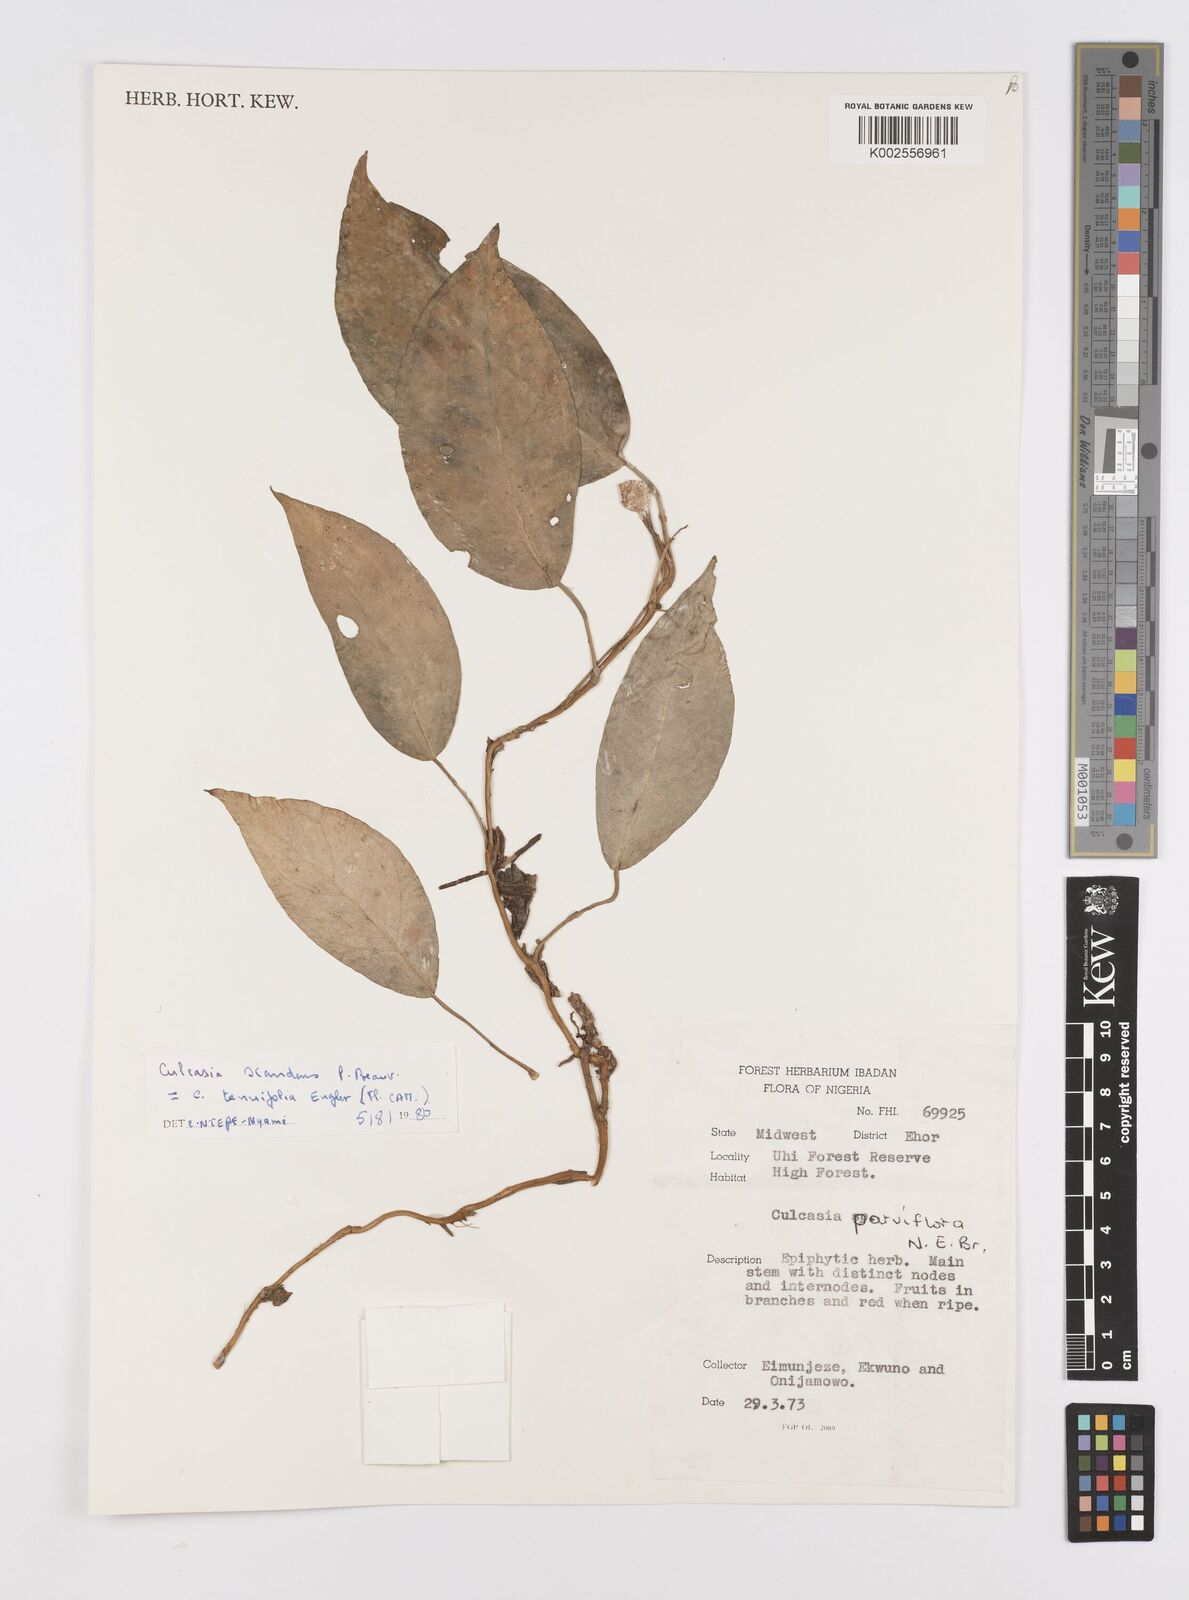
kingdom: Plantae
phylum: Tracheophyta
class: Liliopsida
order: Alismatales
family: Araceae
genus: Culcasia
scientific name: Culcasia scandens
